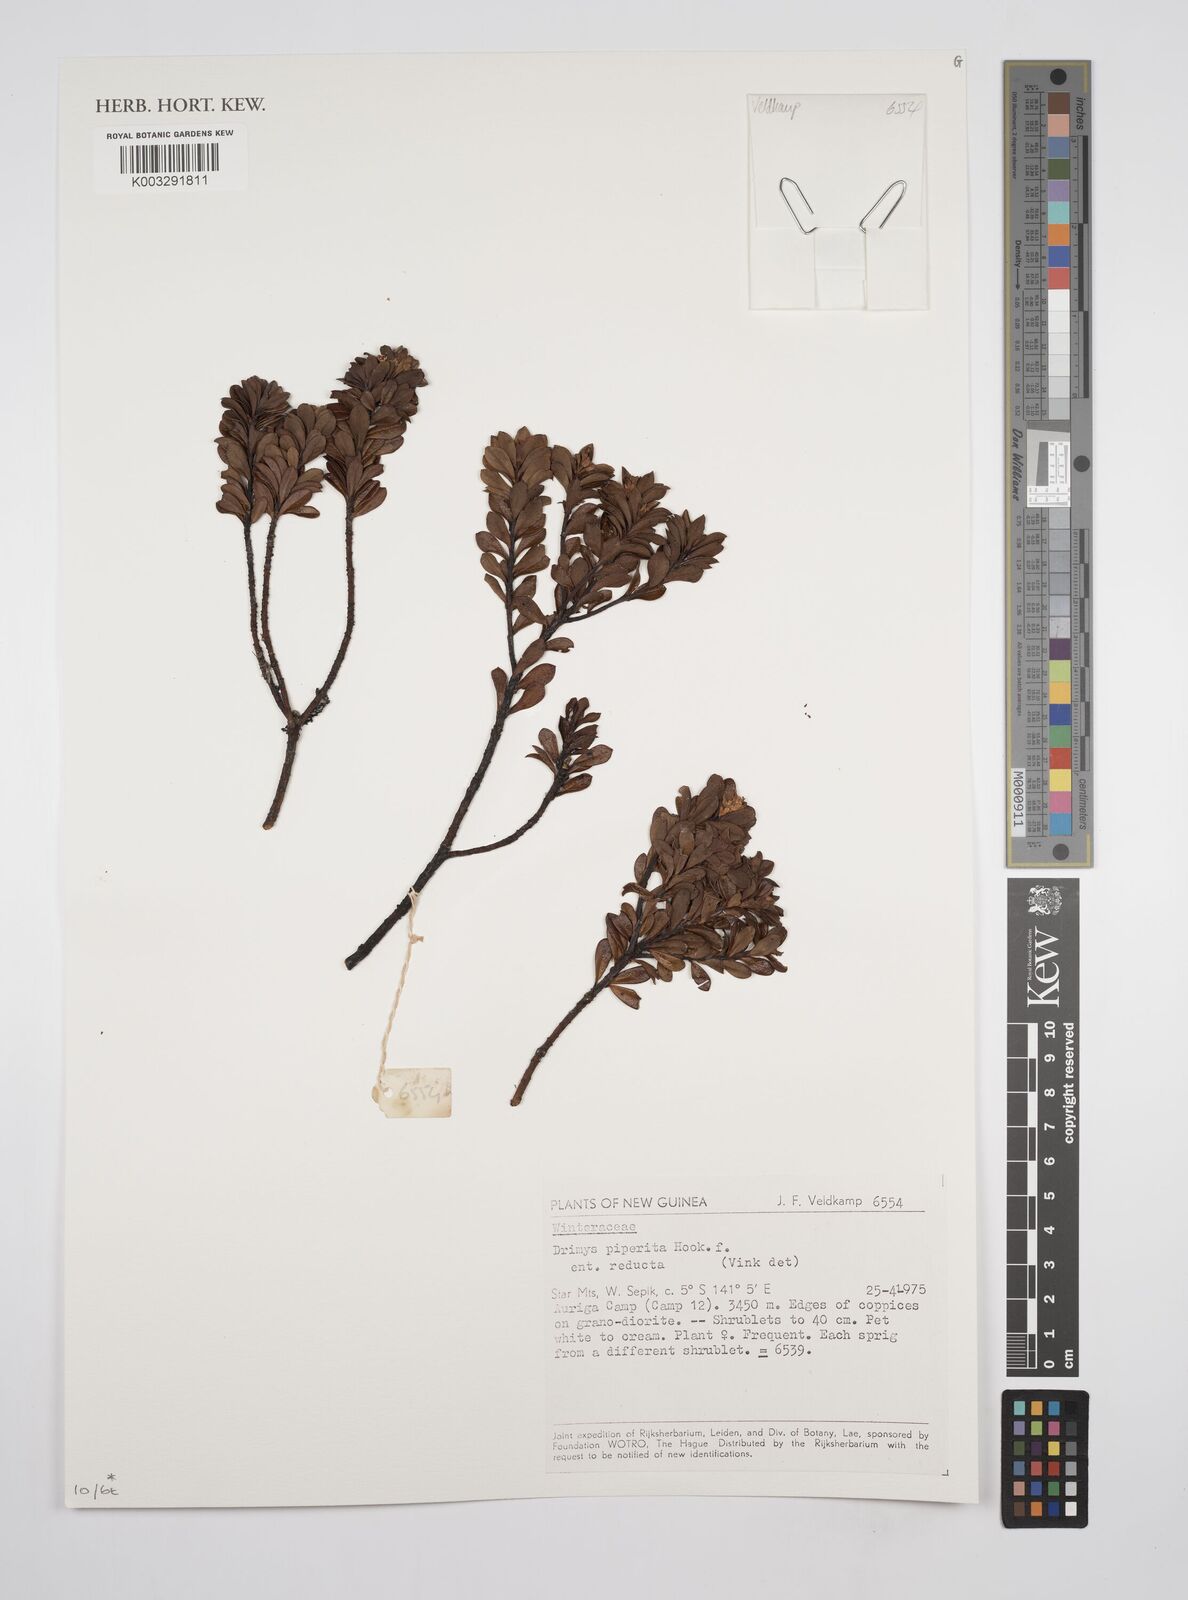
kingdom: Plantae
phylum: Tracheophyta
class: Magnoliopsida
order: Canellales
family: Winteraceae
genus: Drimys
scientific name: Drimys piperita
